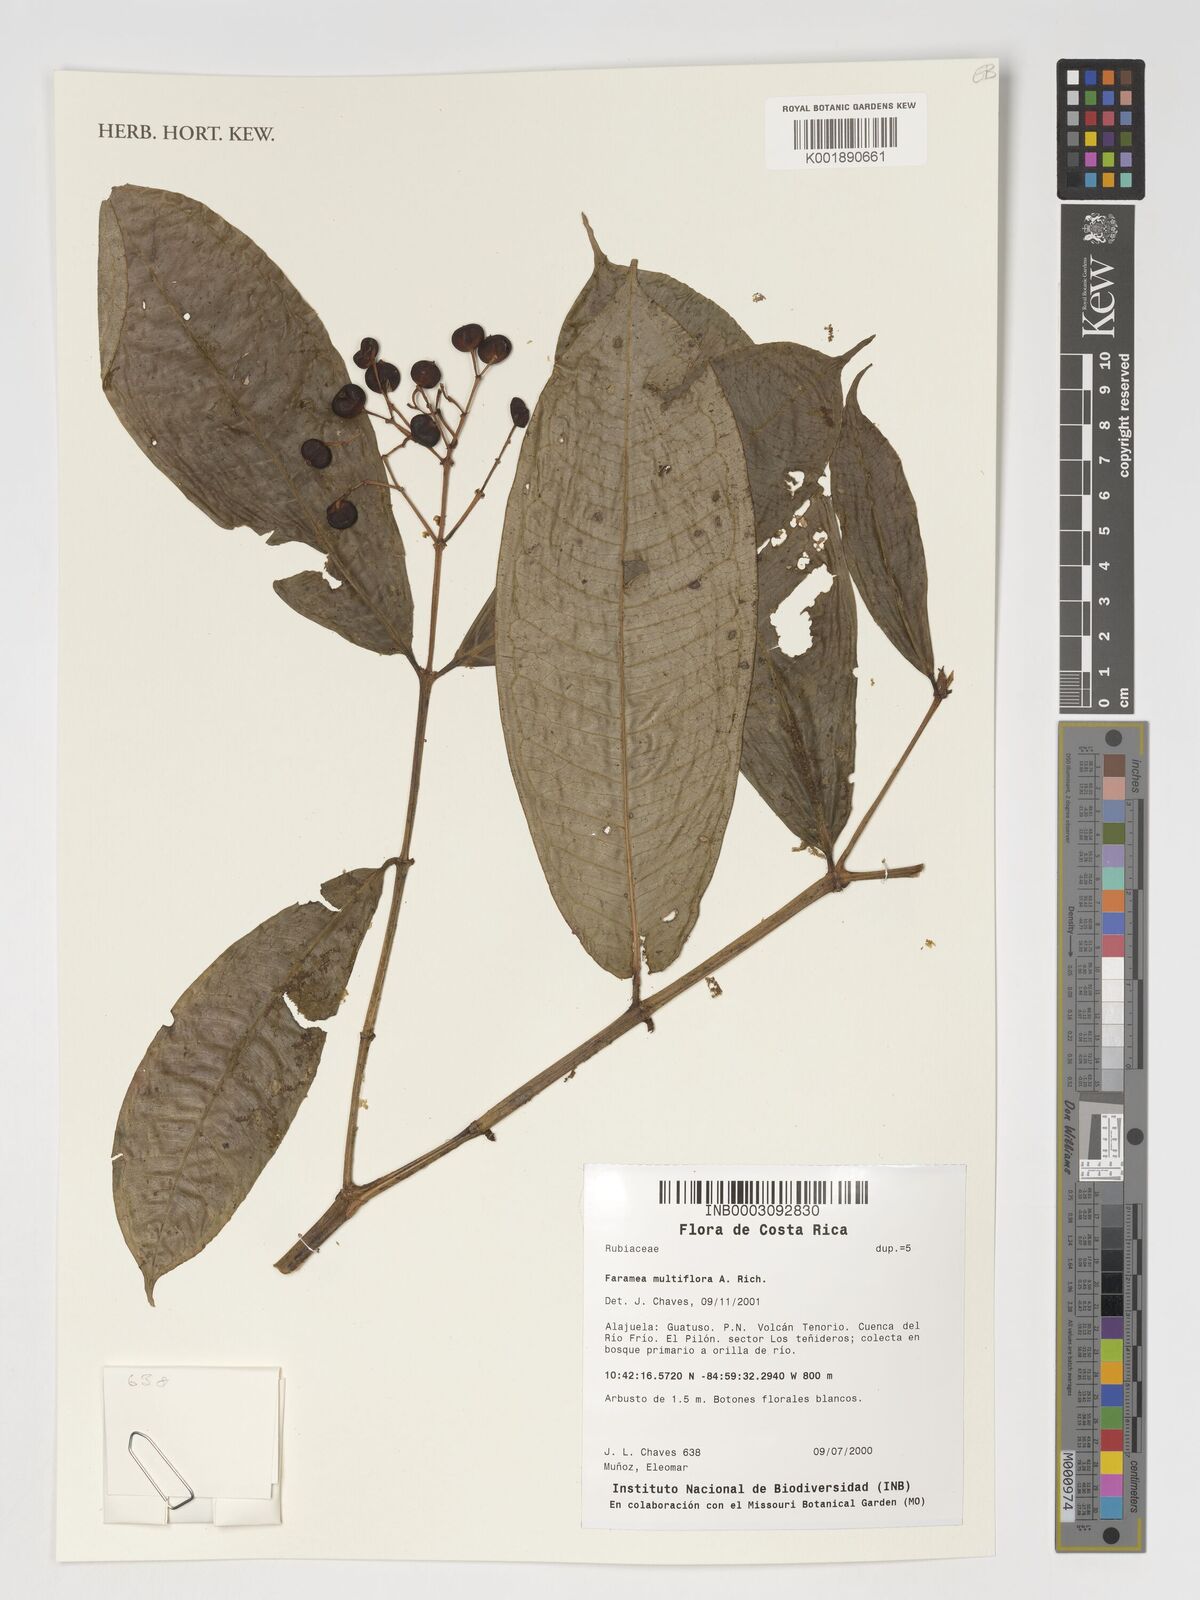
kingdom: Plantae
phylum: Tracheophyta
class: Magnoliopsida
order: Gentianales
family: Rubiaceae
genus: Faramea
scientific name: Faramea multiflora
